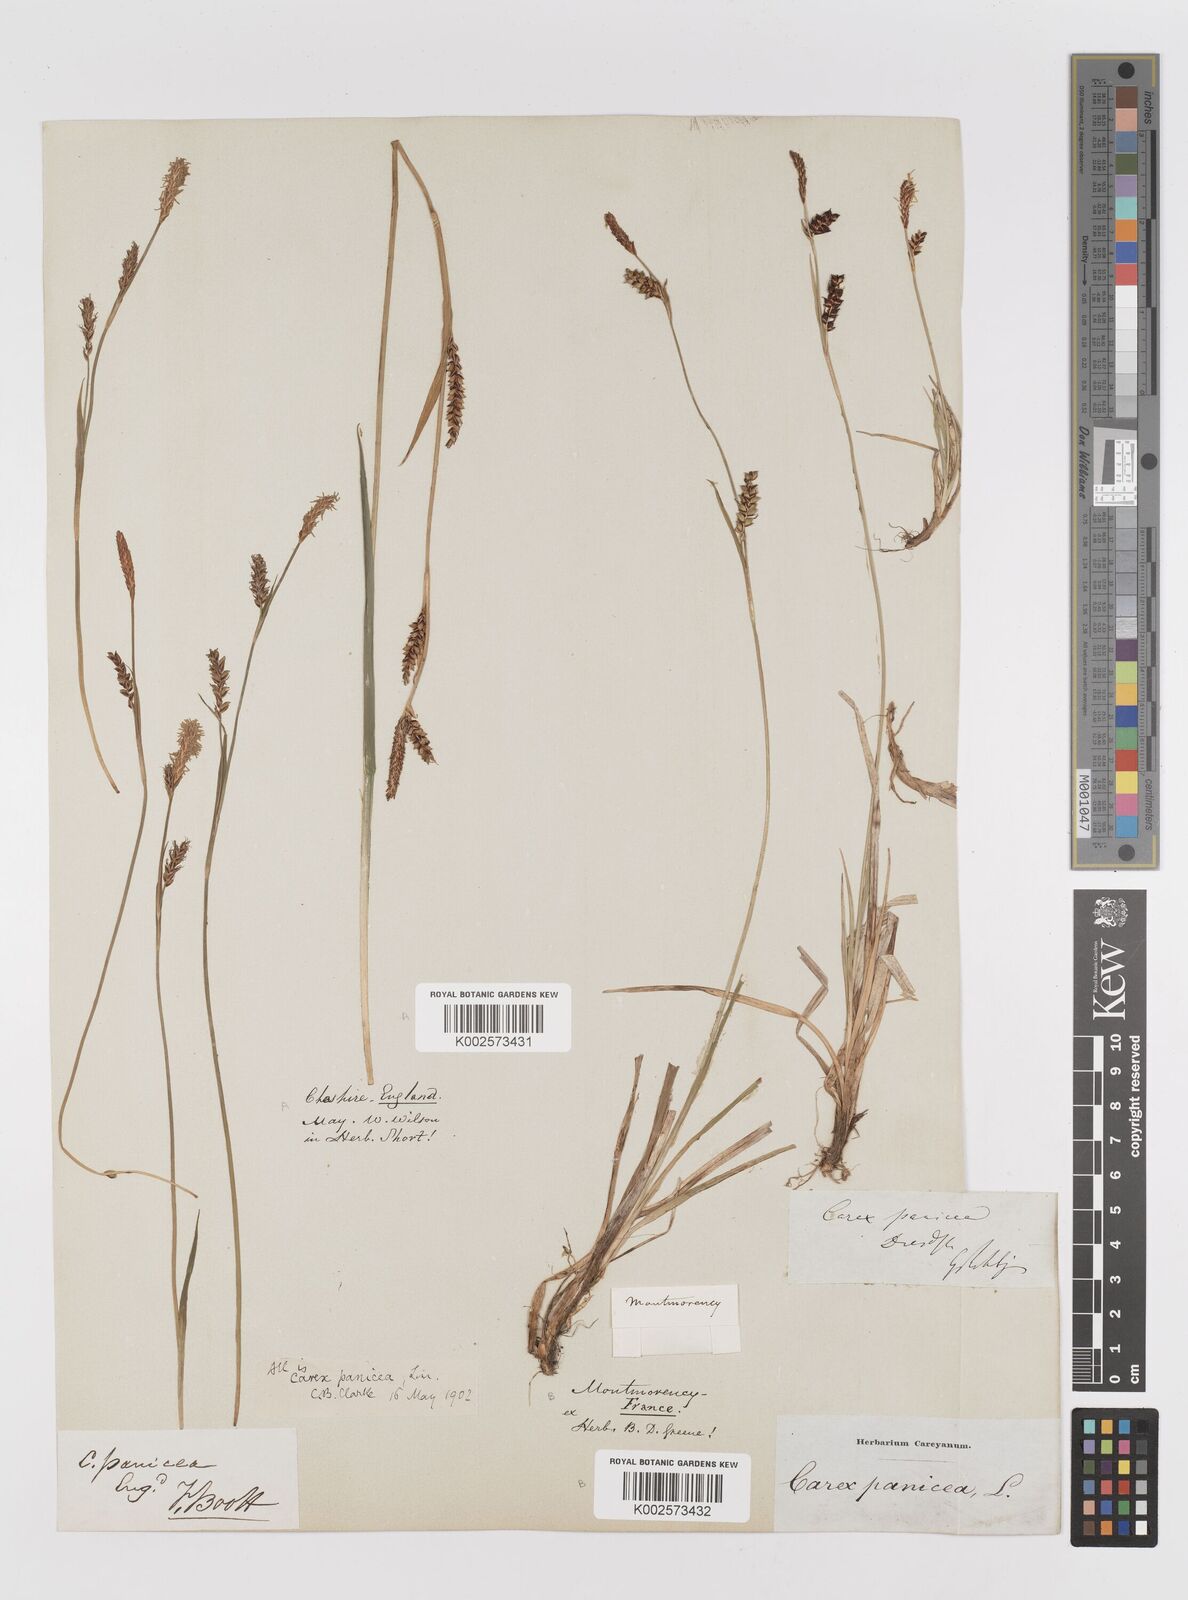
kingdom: Plantae
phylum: Tracheophyta
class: Liliopsida
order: Poales
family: Cyperaceae
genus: Carex
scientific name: Carex panicea
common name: Carnation sedge
